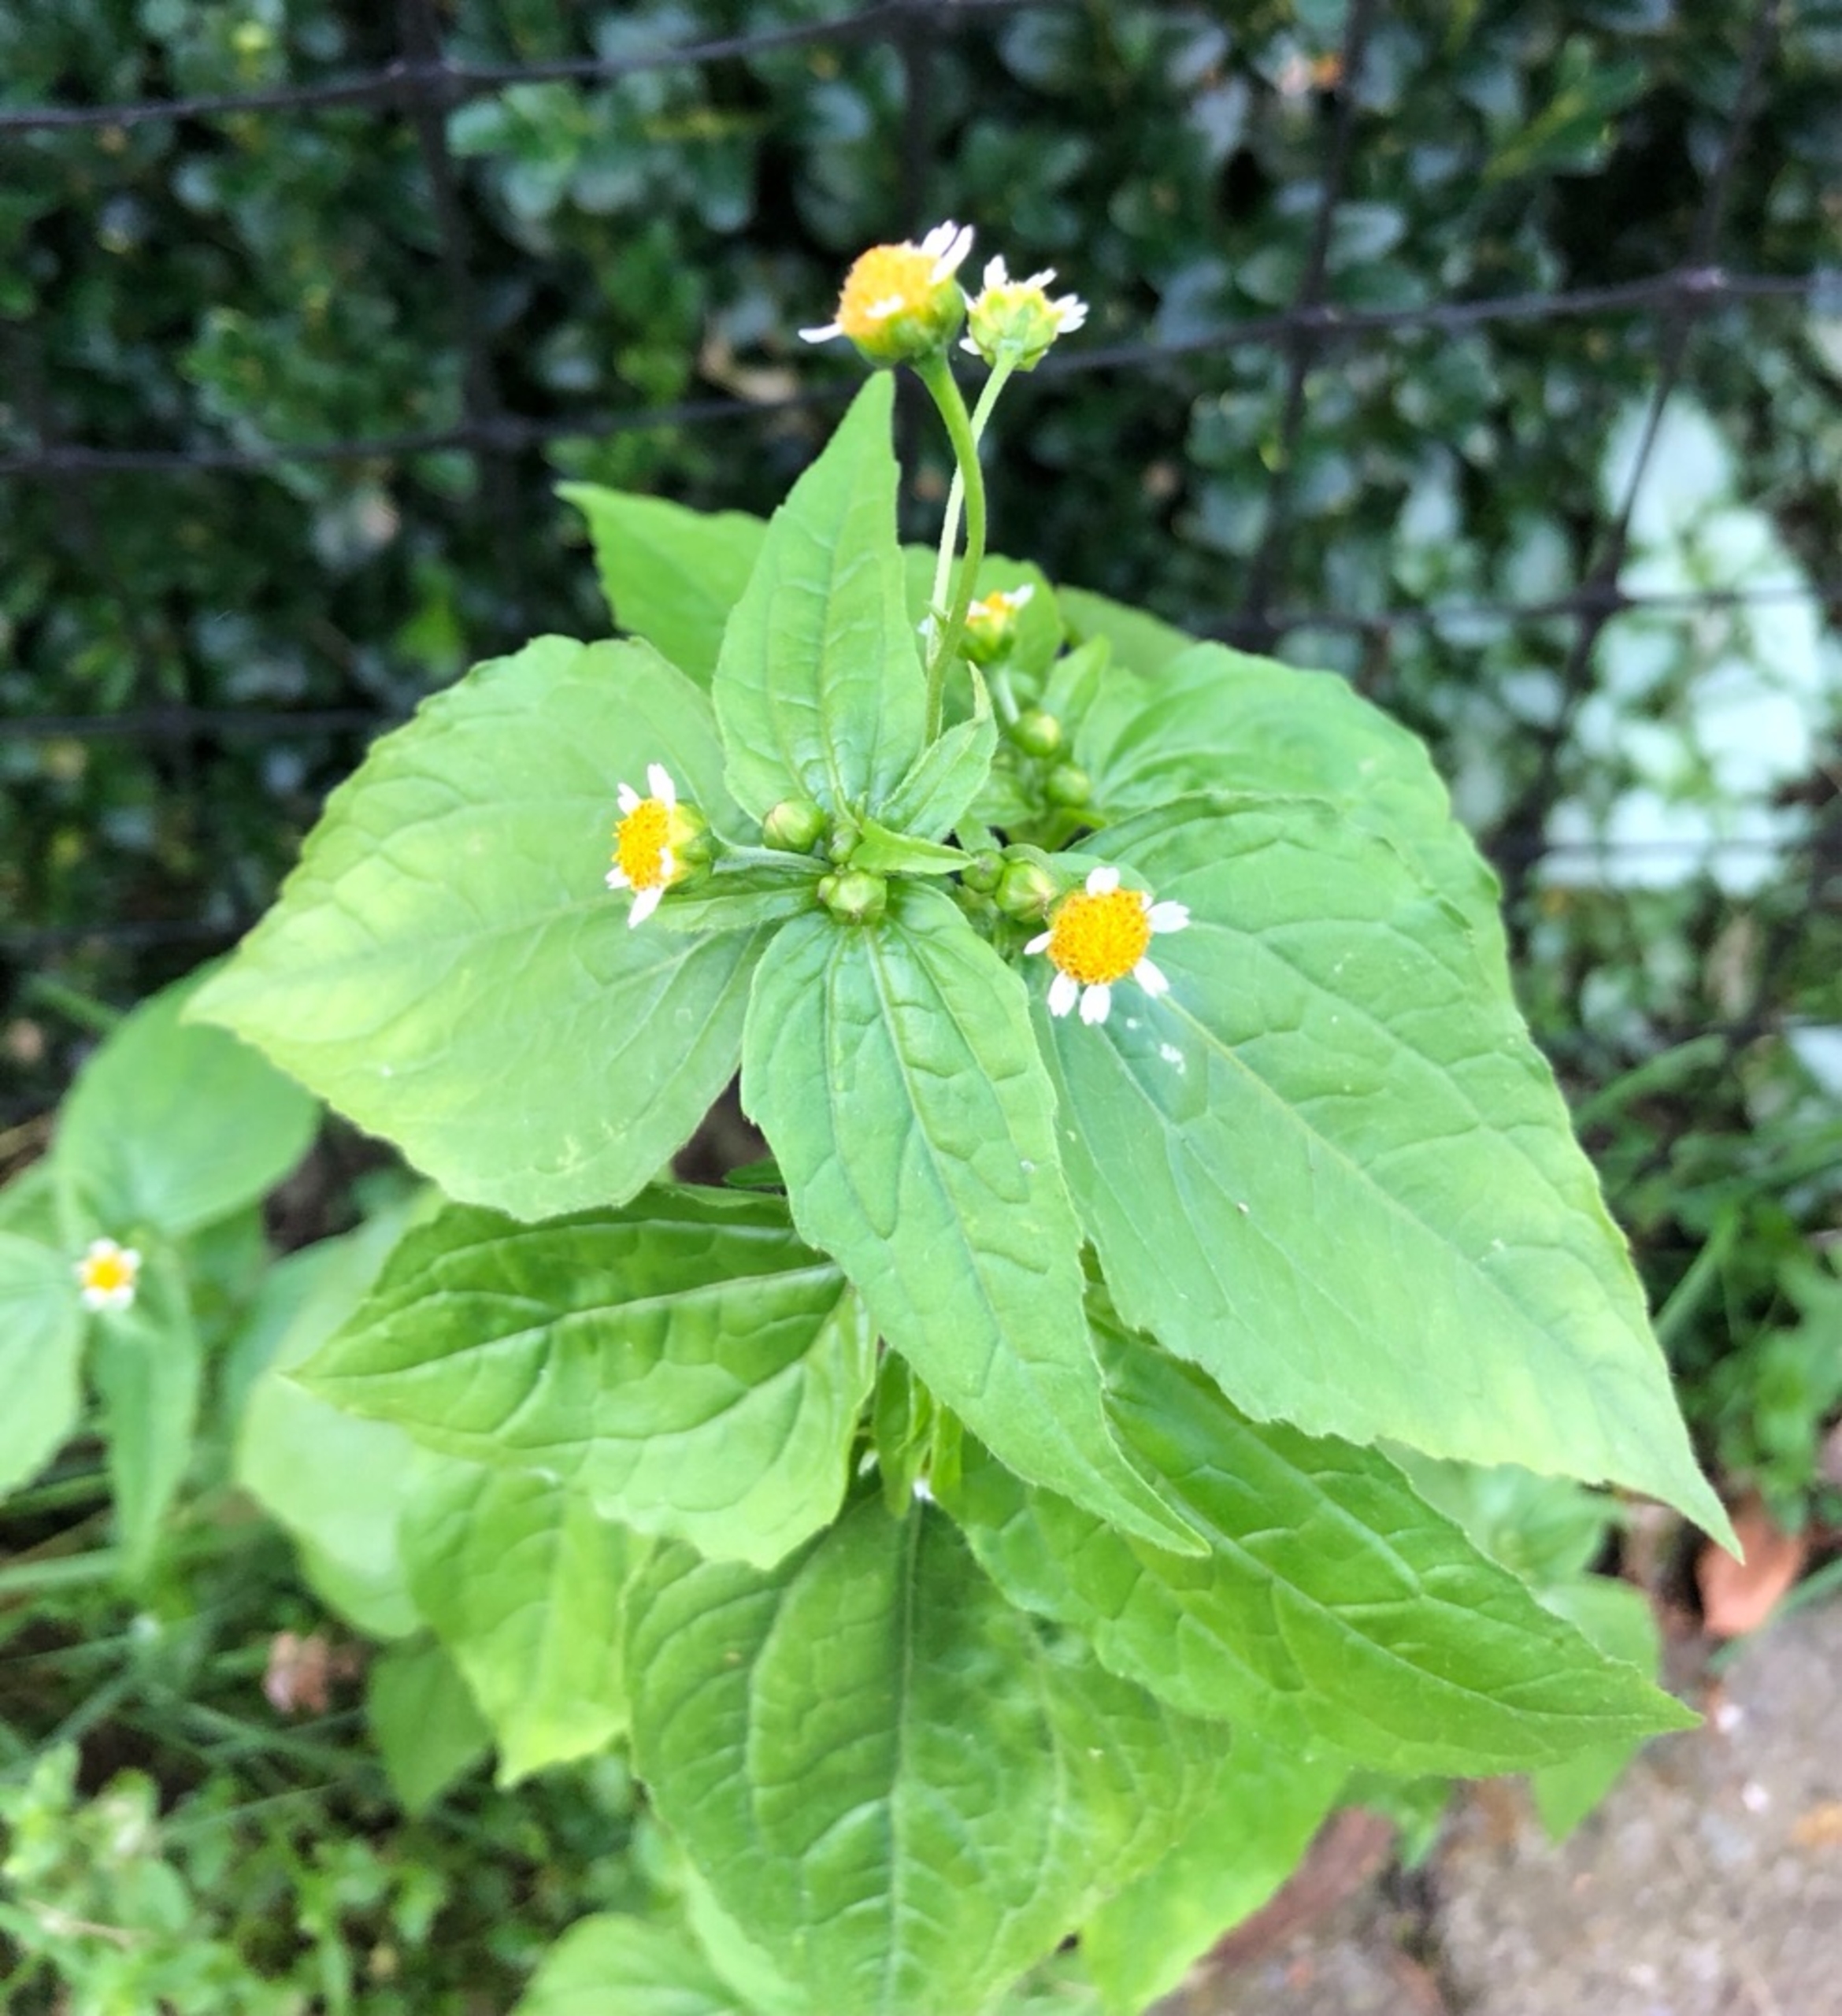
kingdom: Plantae
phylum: Tracheophyta
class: Magnoliopsida
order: Asterales
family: Asteraceae
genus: Galinsoga
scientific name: Galinsoga parviflora
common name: Håret kortstråle
